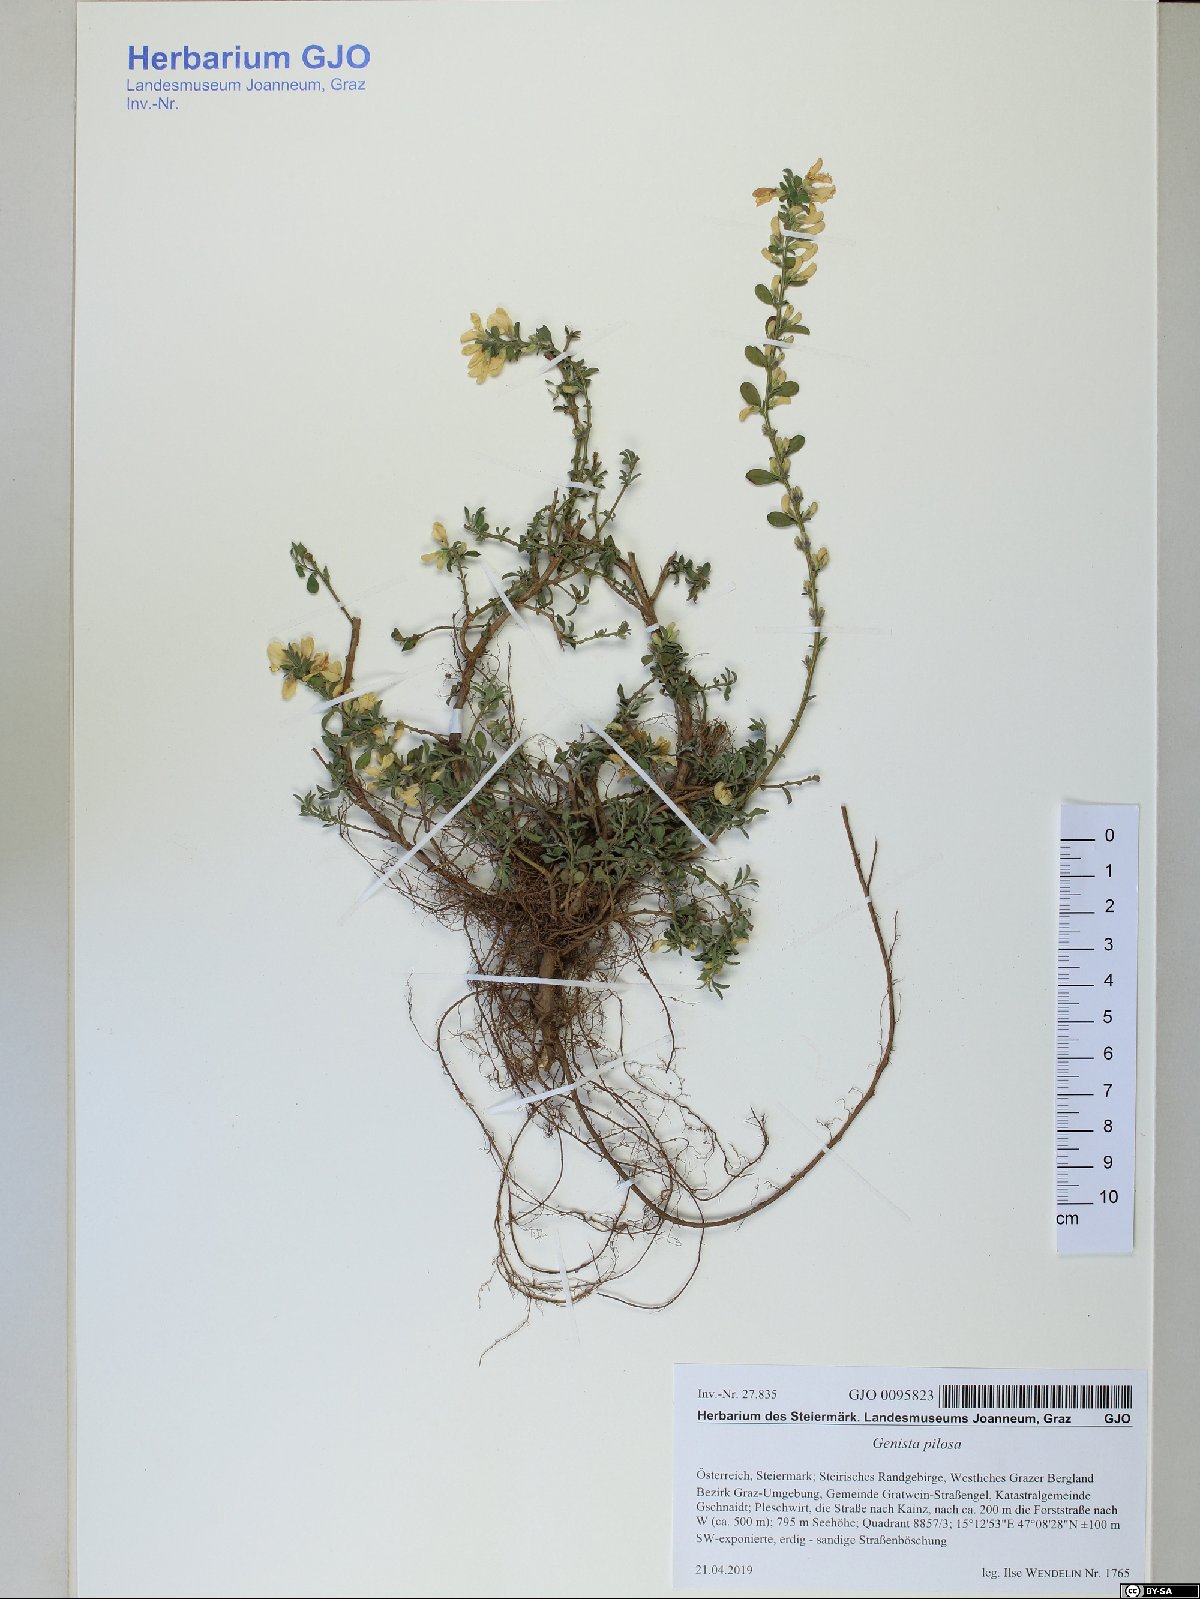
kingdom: Plantae
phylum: Tracheophyta
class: Magnoliopsida
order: Fabales
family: Fabaceae
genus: Genista
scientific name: Genista pilosa
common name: Hairy greenweed
